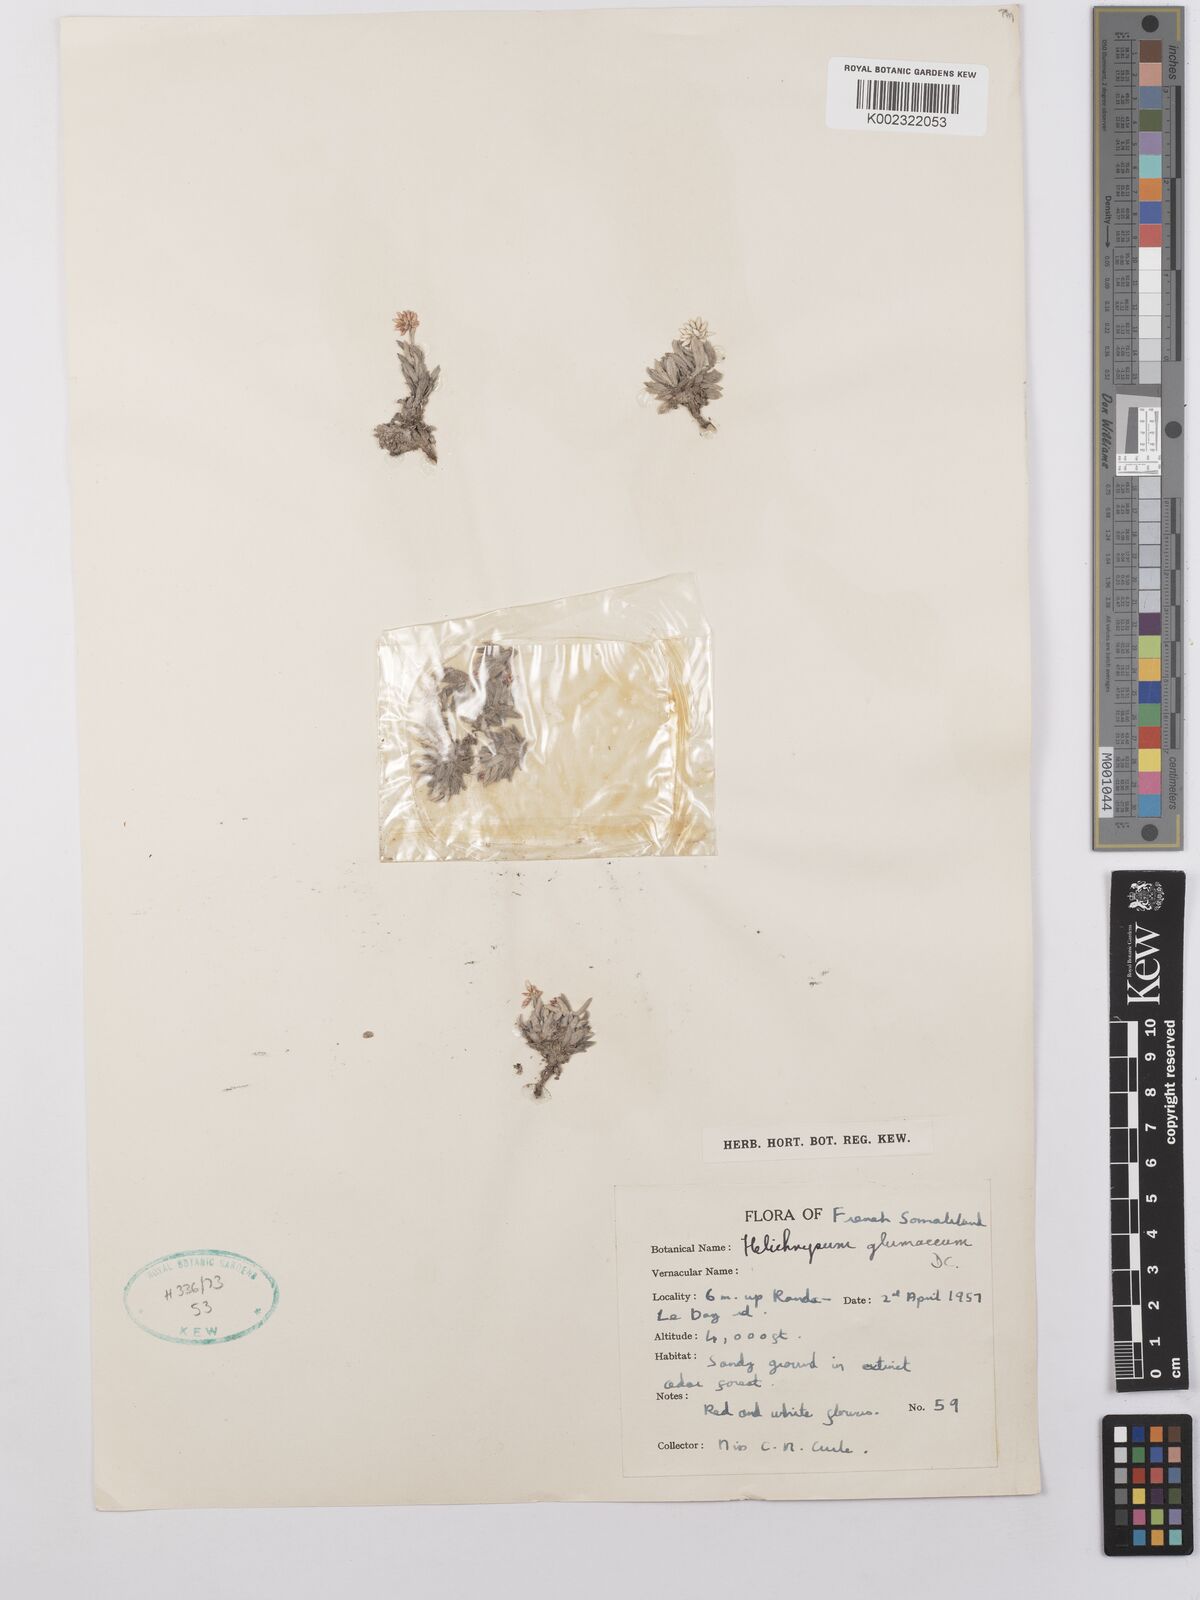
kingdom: Plantae
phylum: Tracheophyta
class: Magnoliopsida
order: Asterales
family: Asteraceae
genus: Helichrysum
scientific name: Helichrysum glumaceum
